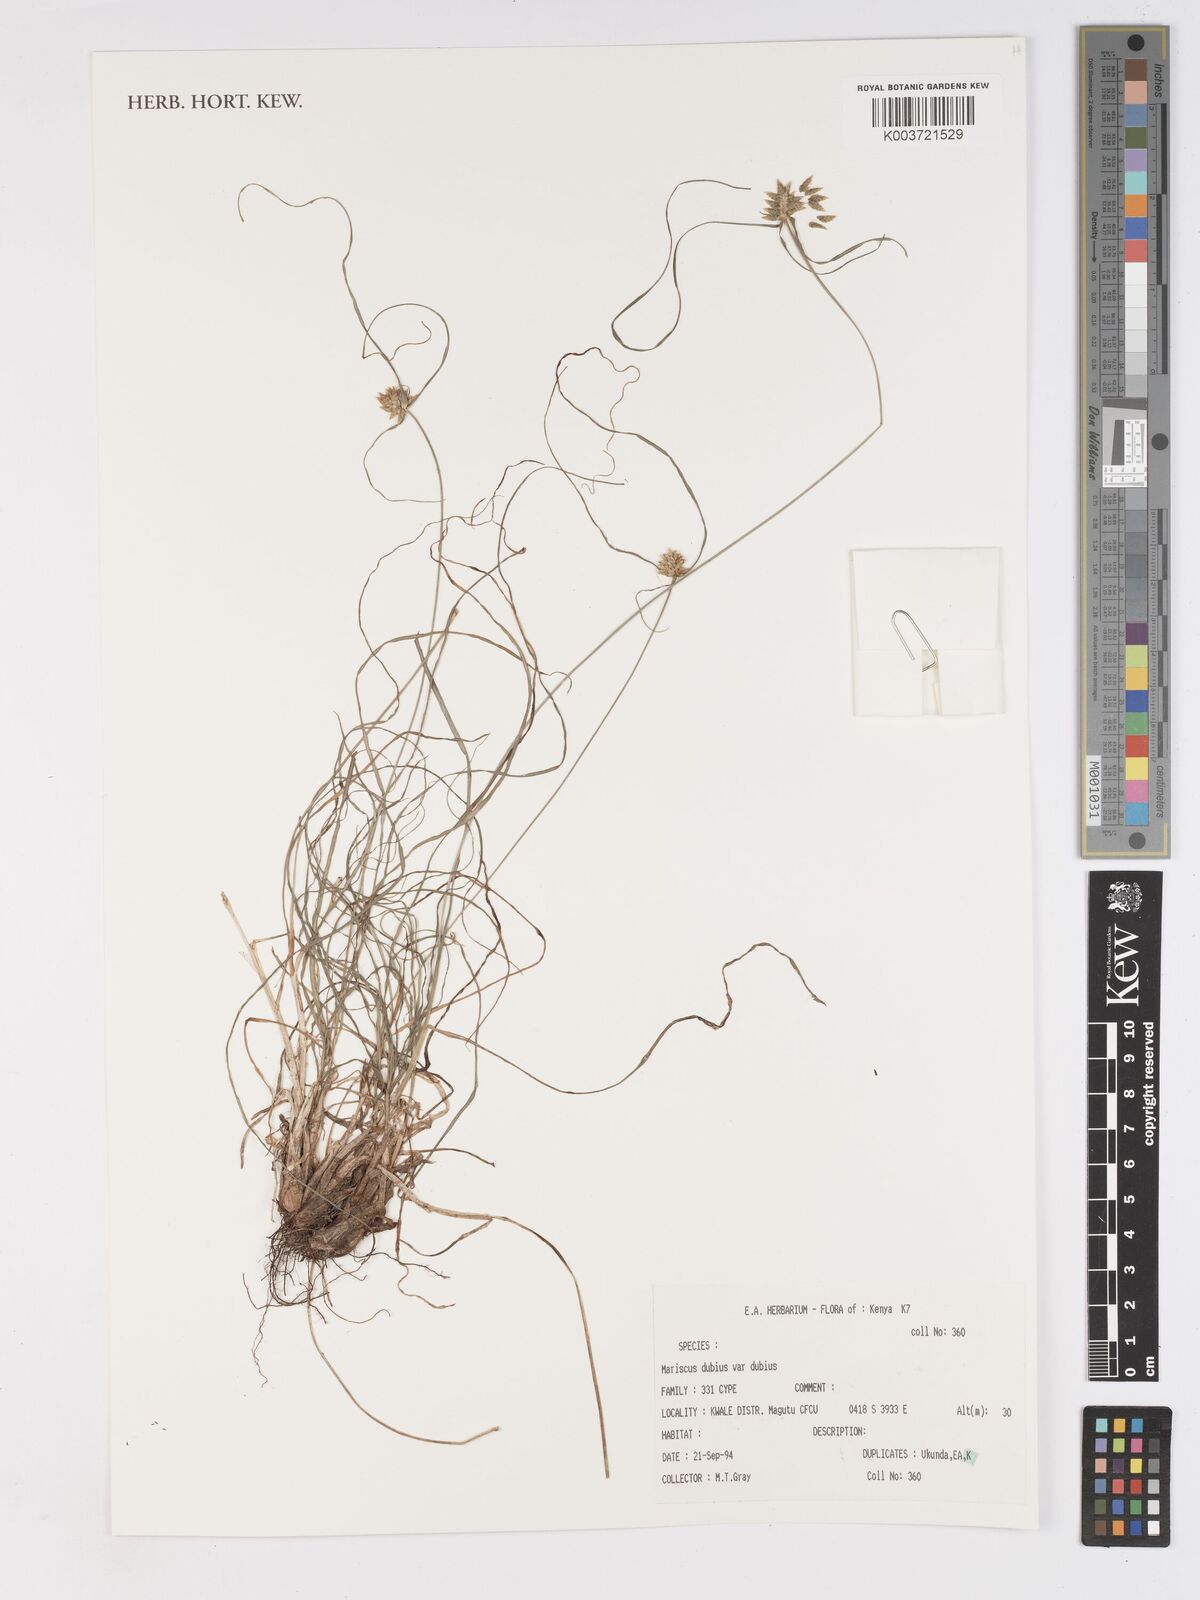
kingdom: Plantae
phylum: Tracheophyta
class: Liliopsida
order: Poales
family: Cyperaceae
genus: Cyperus
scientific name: Cyperus dubius
